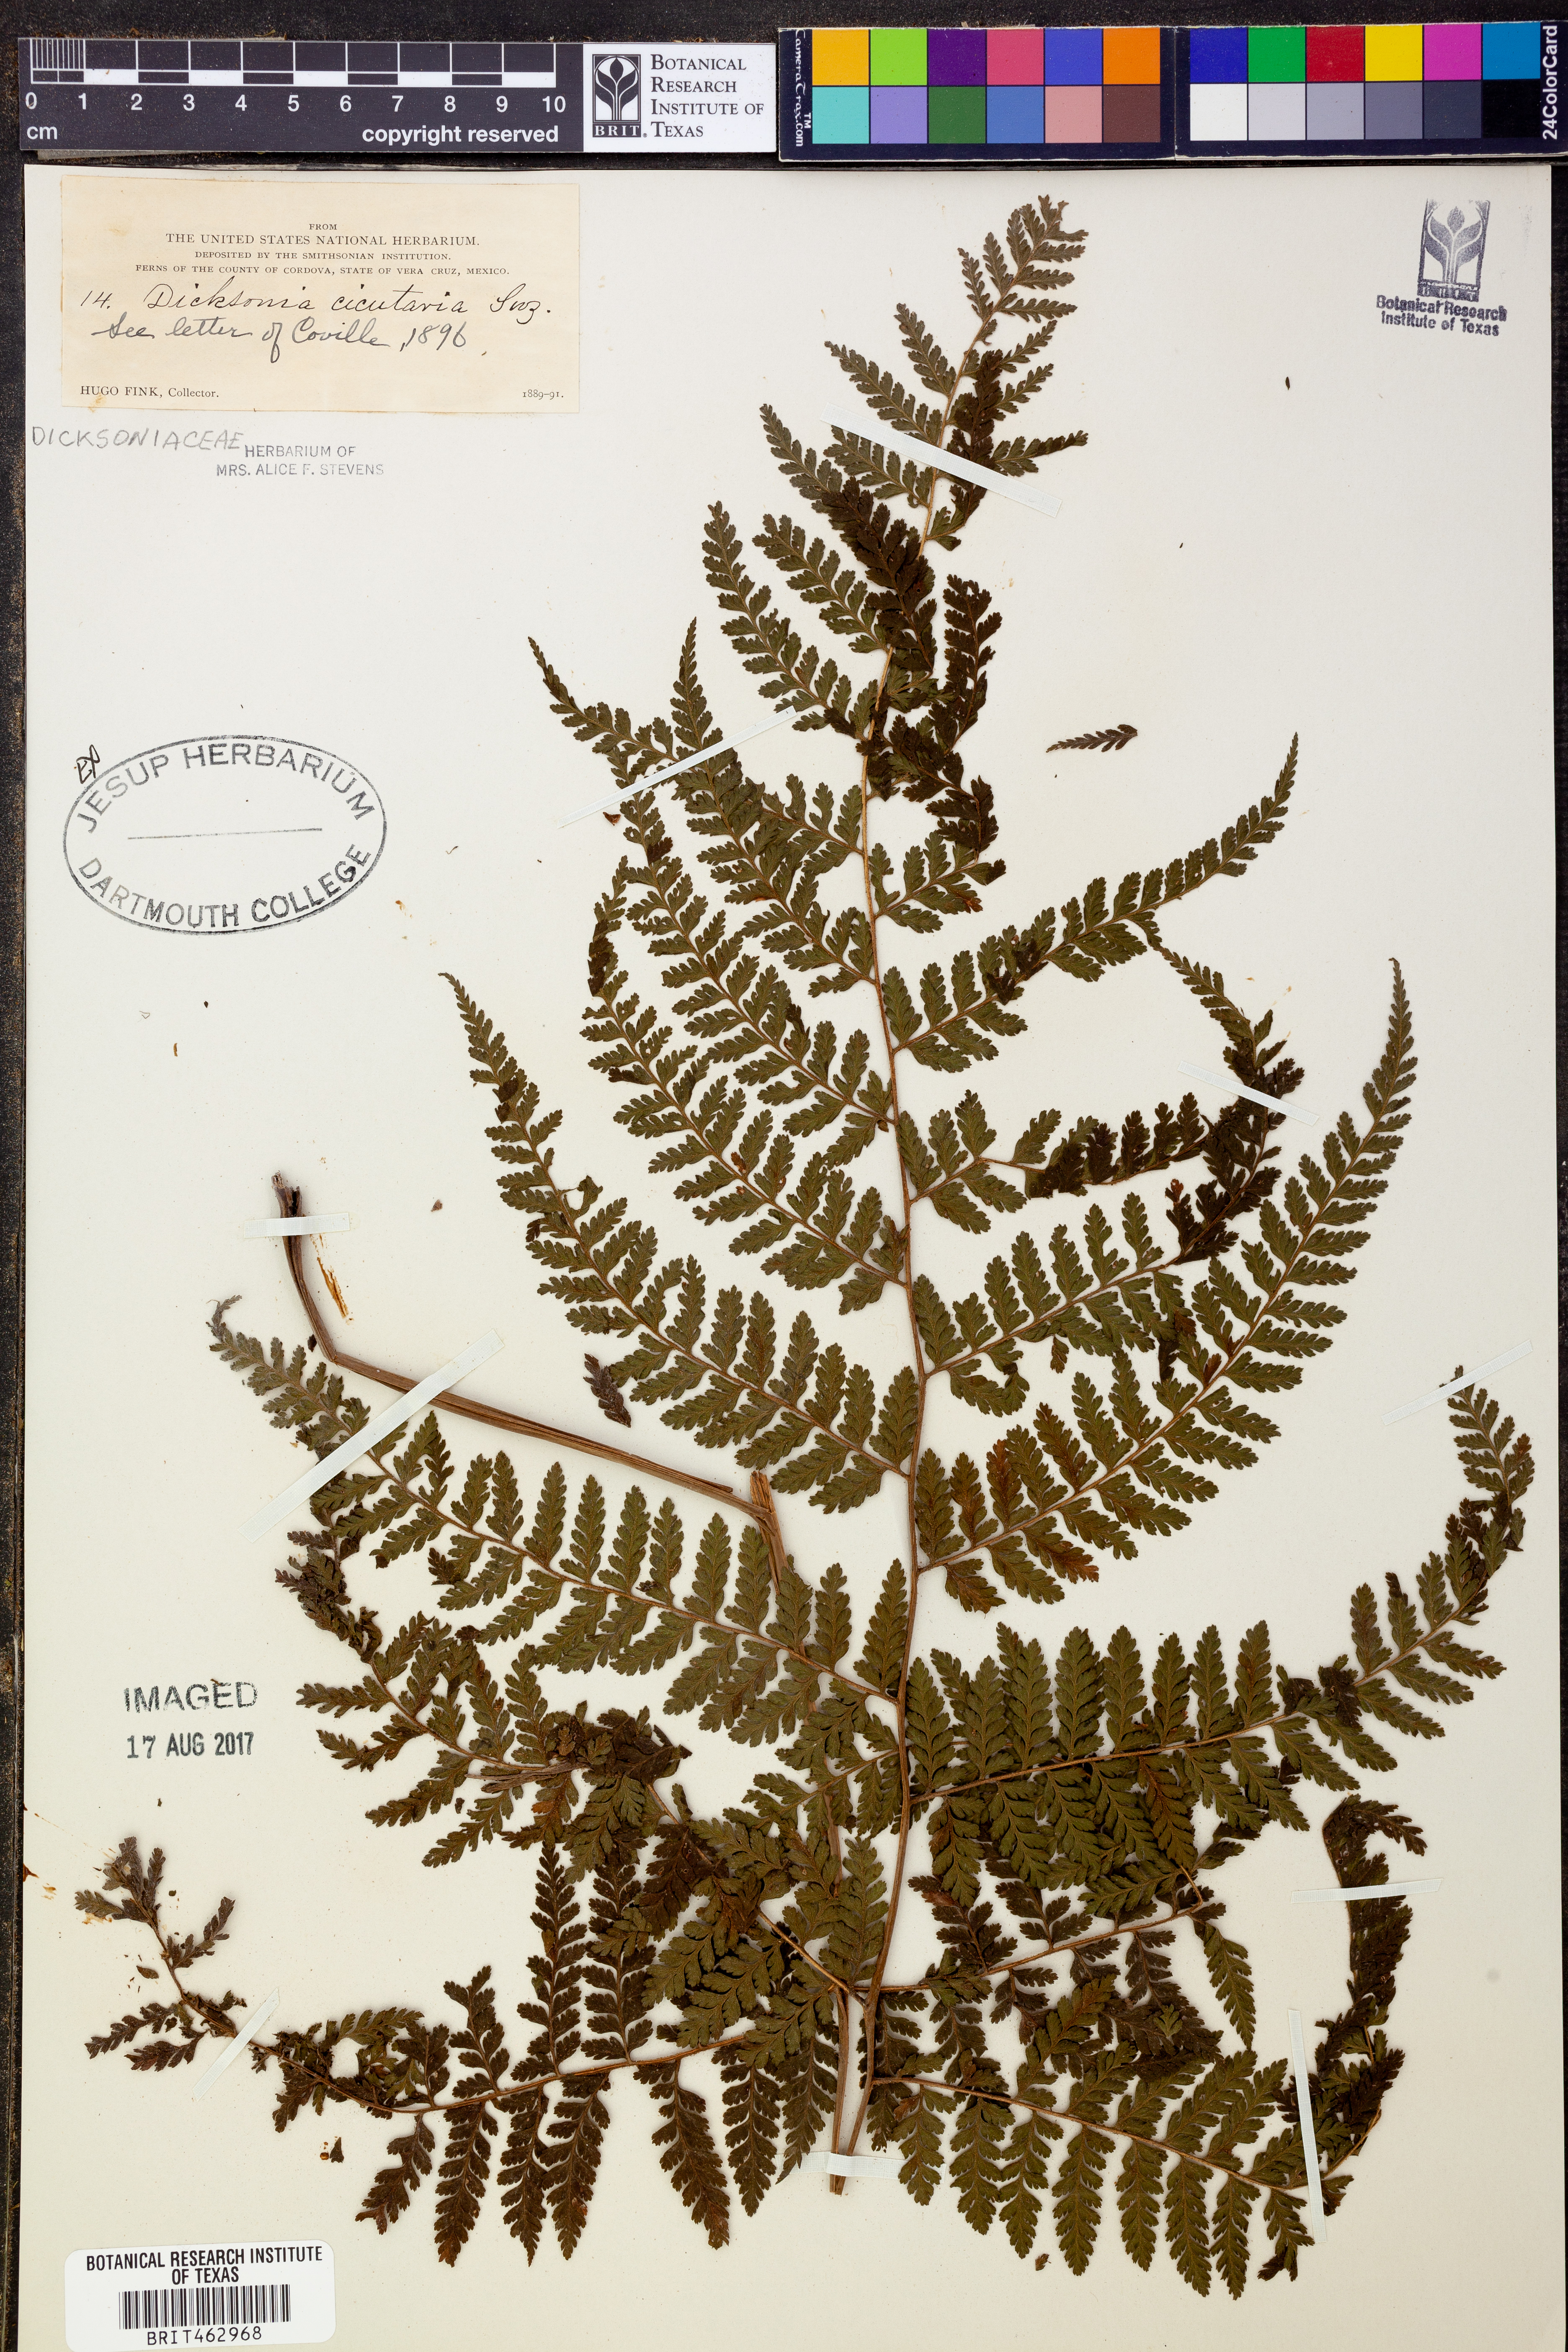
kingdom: Plantae
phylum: Tracheophyta
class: Polypodiopsida
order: Polypodiales
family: Dennstaedtiaceae
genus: Dennstaedtia
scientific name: Dennstaedtia cicutaria
